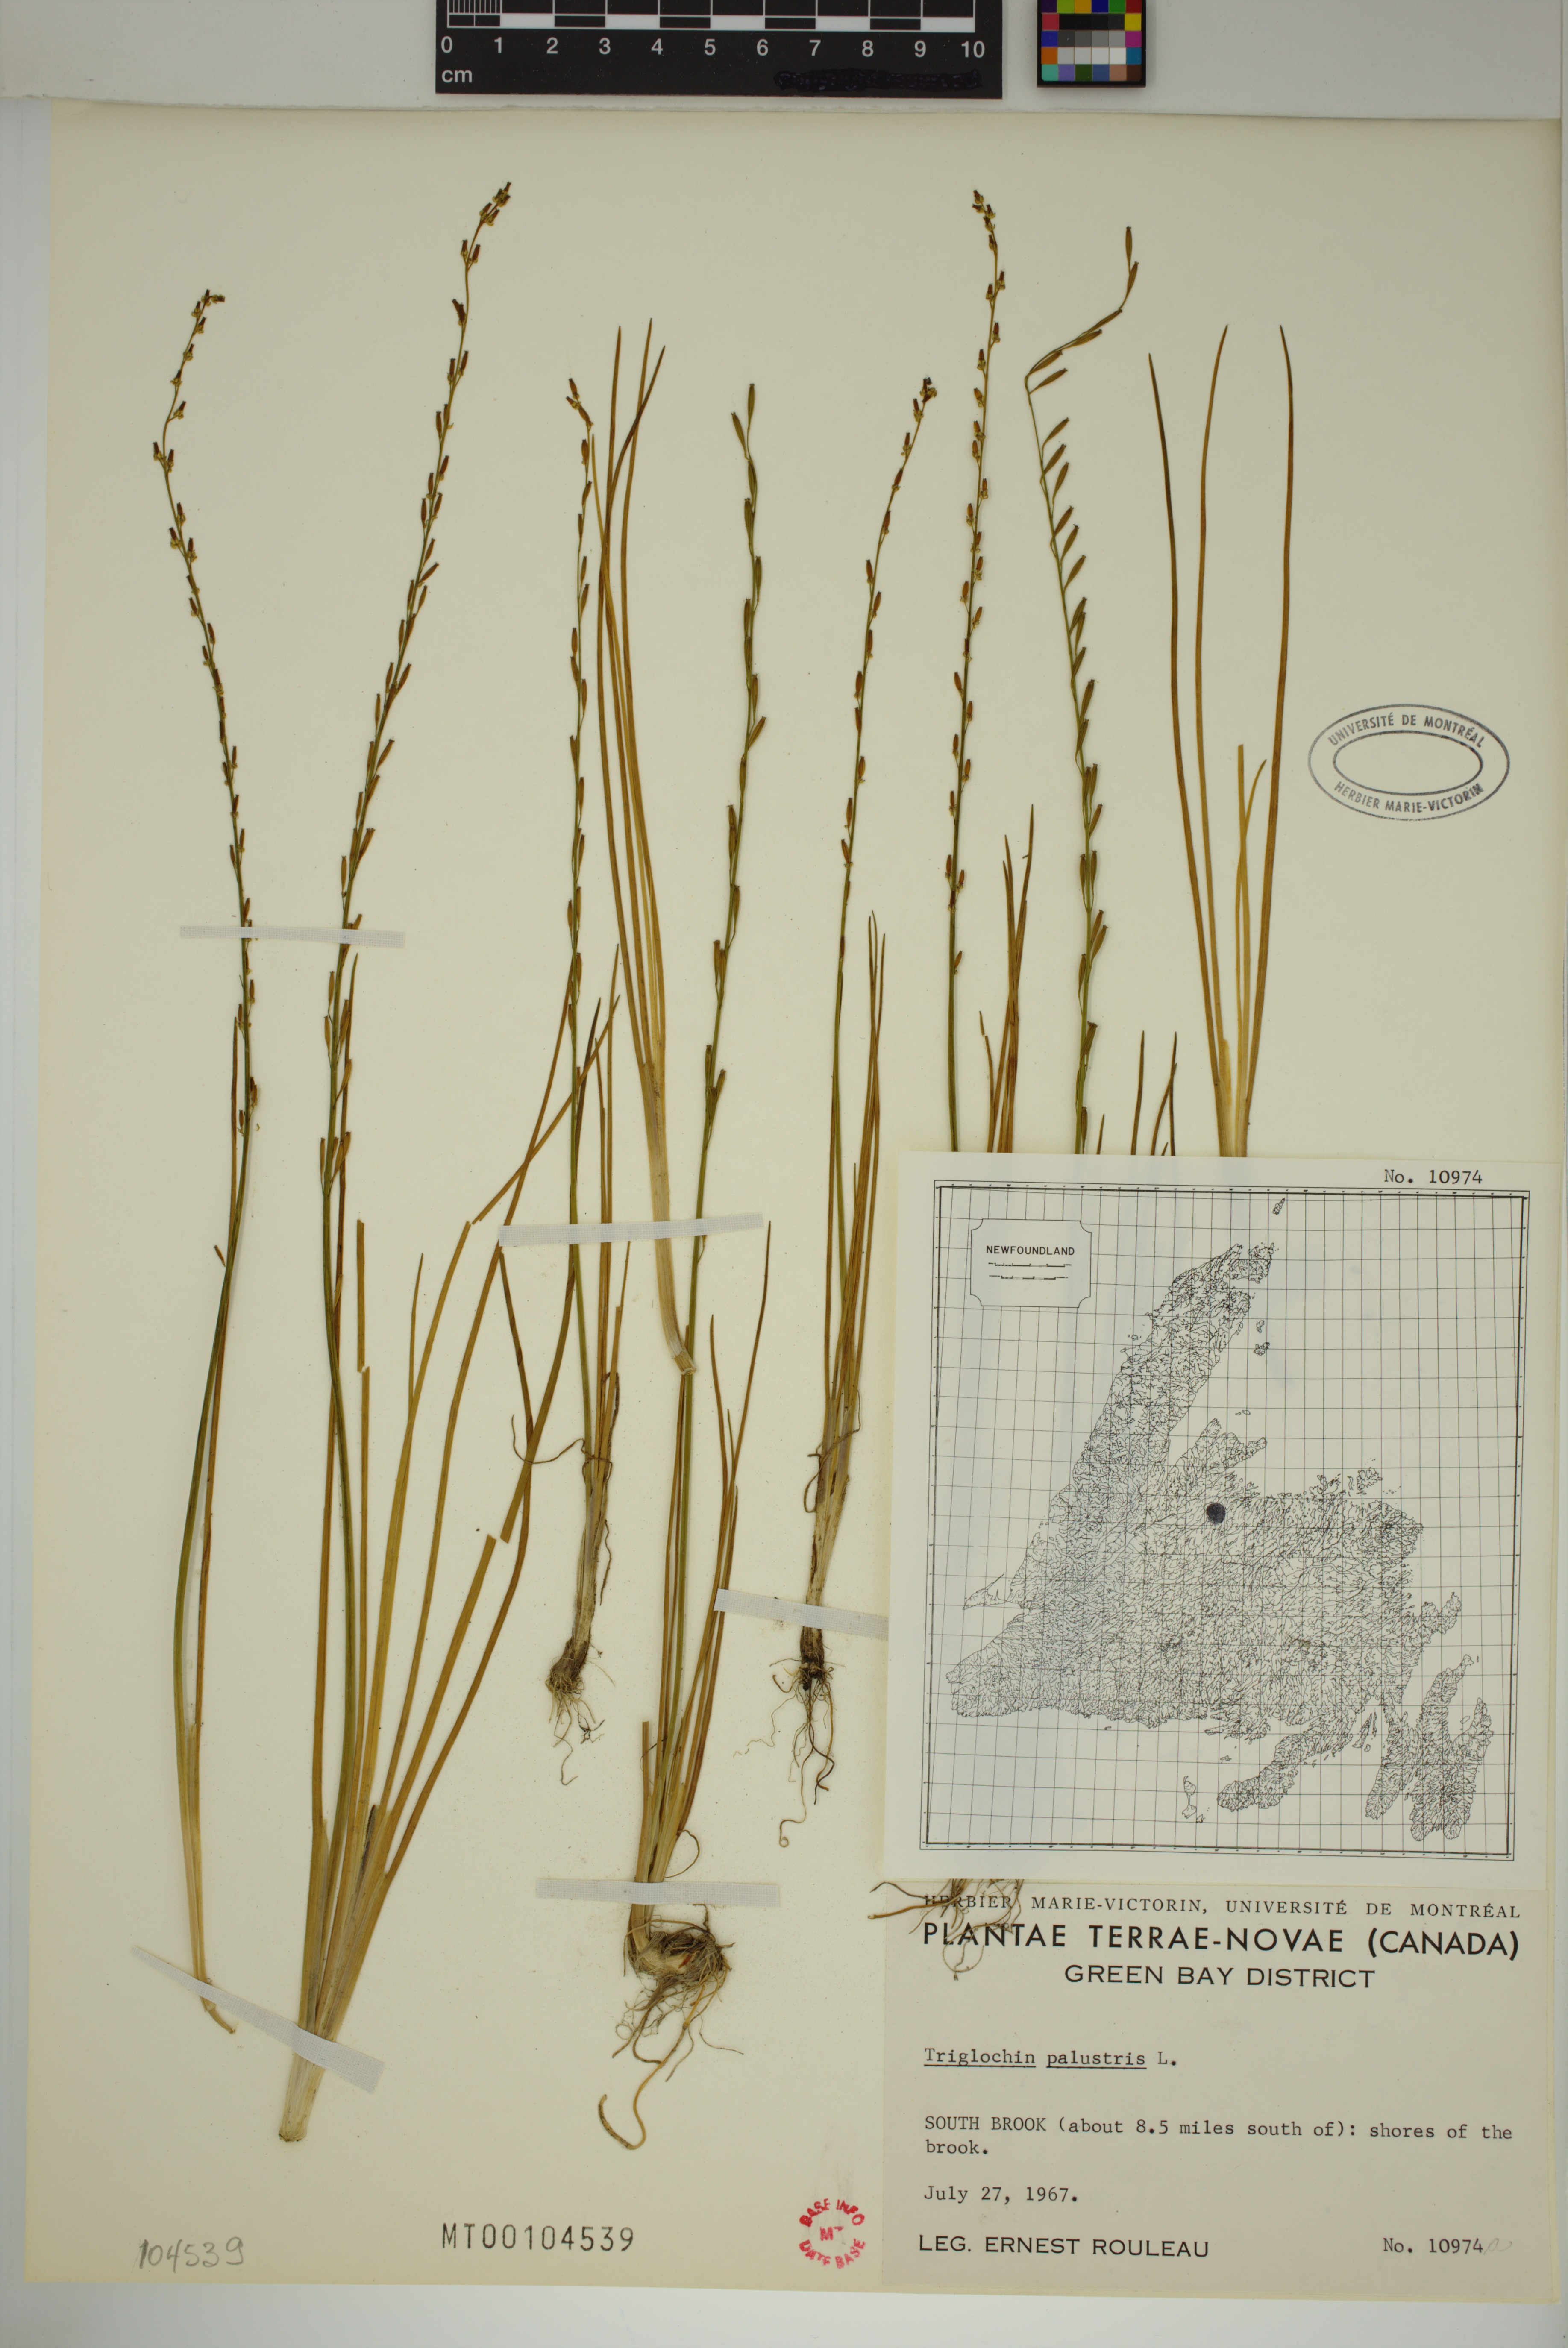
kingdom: Plantae
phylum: Tracheophyta
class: Liliopsida
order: Alismatales
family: Juncaginaceae
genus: Triglochin
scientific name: Triglochin palustris
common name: Marsh arrowgrass
